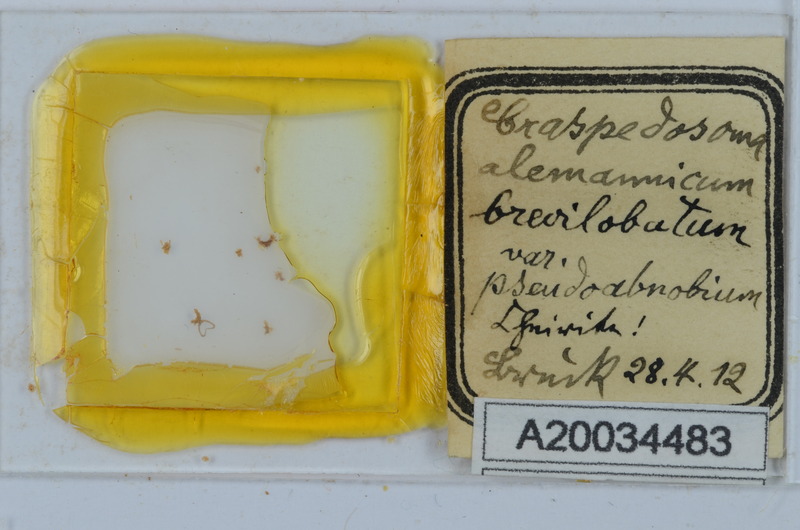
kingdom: Animalia
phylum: Arthropoda
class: Diplopoda
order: Chordeumatida
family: Craspedosomatidae
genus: Craspedosoma
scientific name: Craspedosoma rawlinsii
